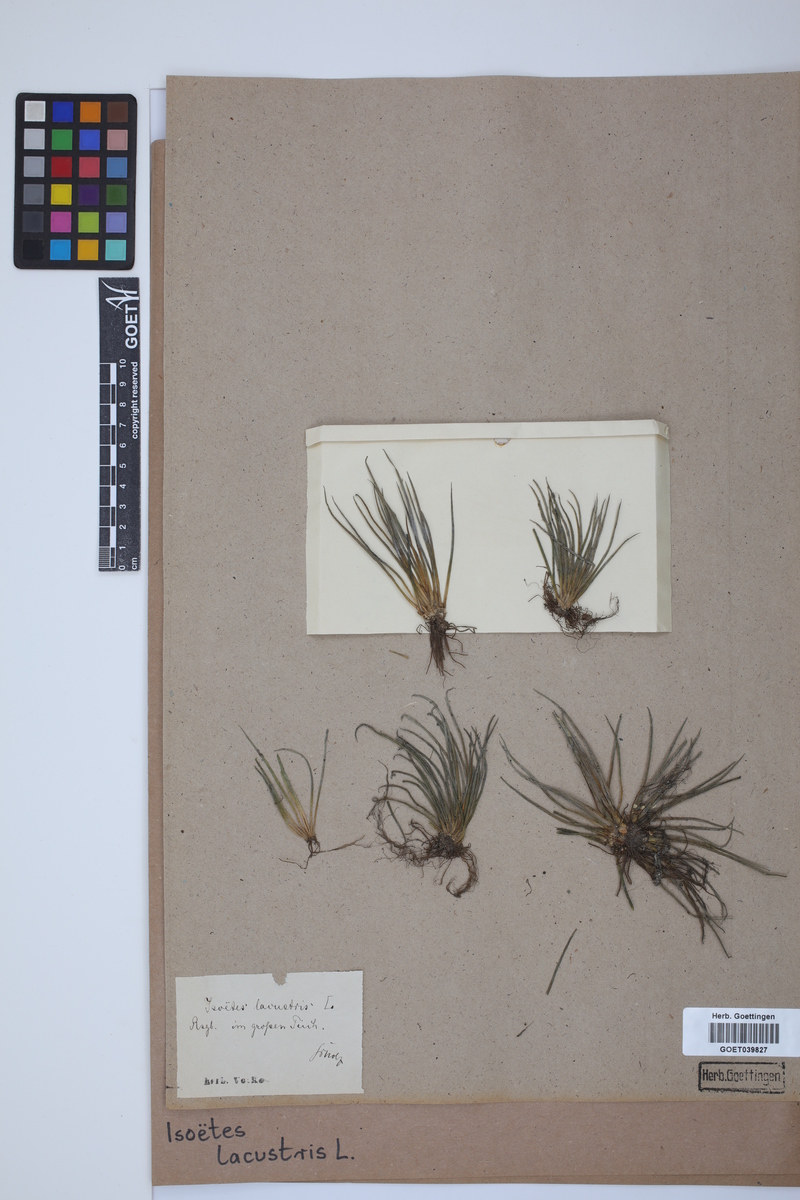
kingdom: Plantae
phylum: Tracheophyta
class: Lycopodiopsida
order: Isoetales
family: Isoetaceae
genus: Isoetes
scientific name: Isoetes lacustris
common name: Common quillwort
